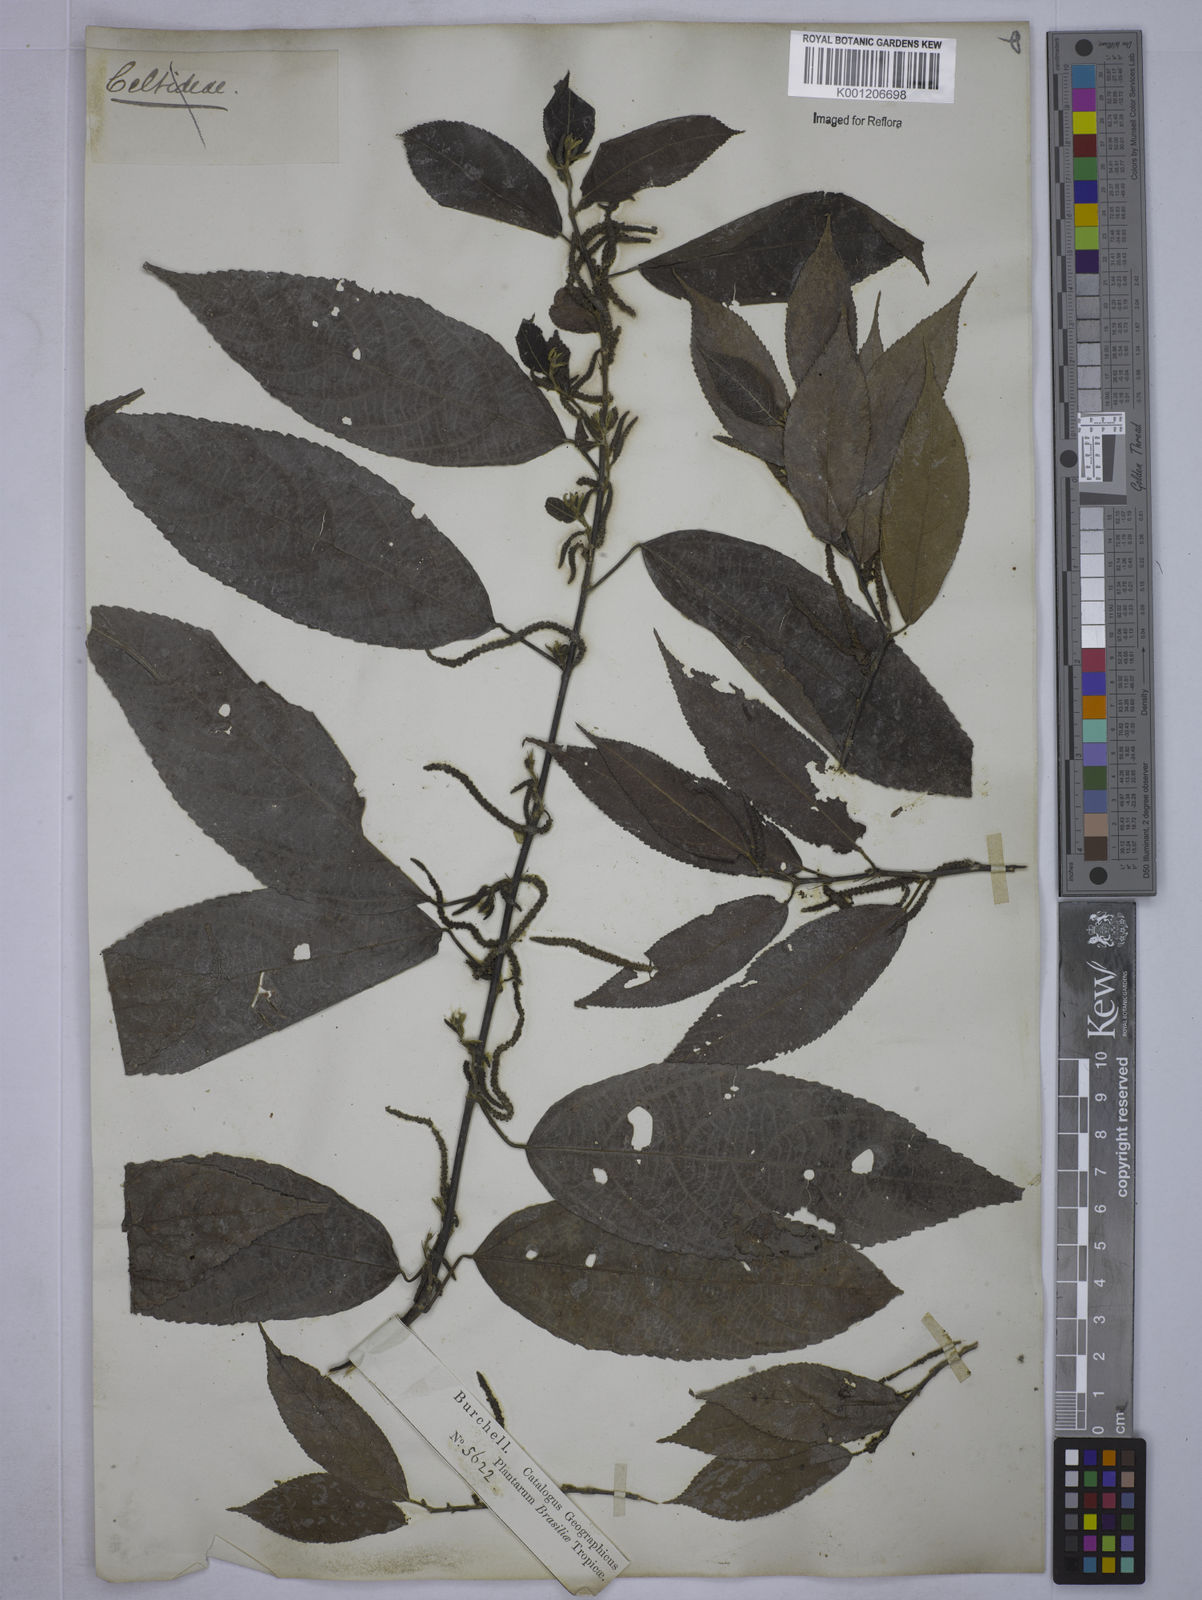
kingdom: Plantae
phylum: Tracheophyta
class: Magnoliopsida
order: Malpighiales
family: Euphorbiaceae
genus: Acalypha
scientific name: Acalypha klotzschii
